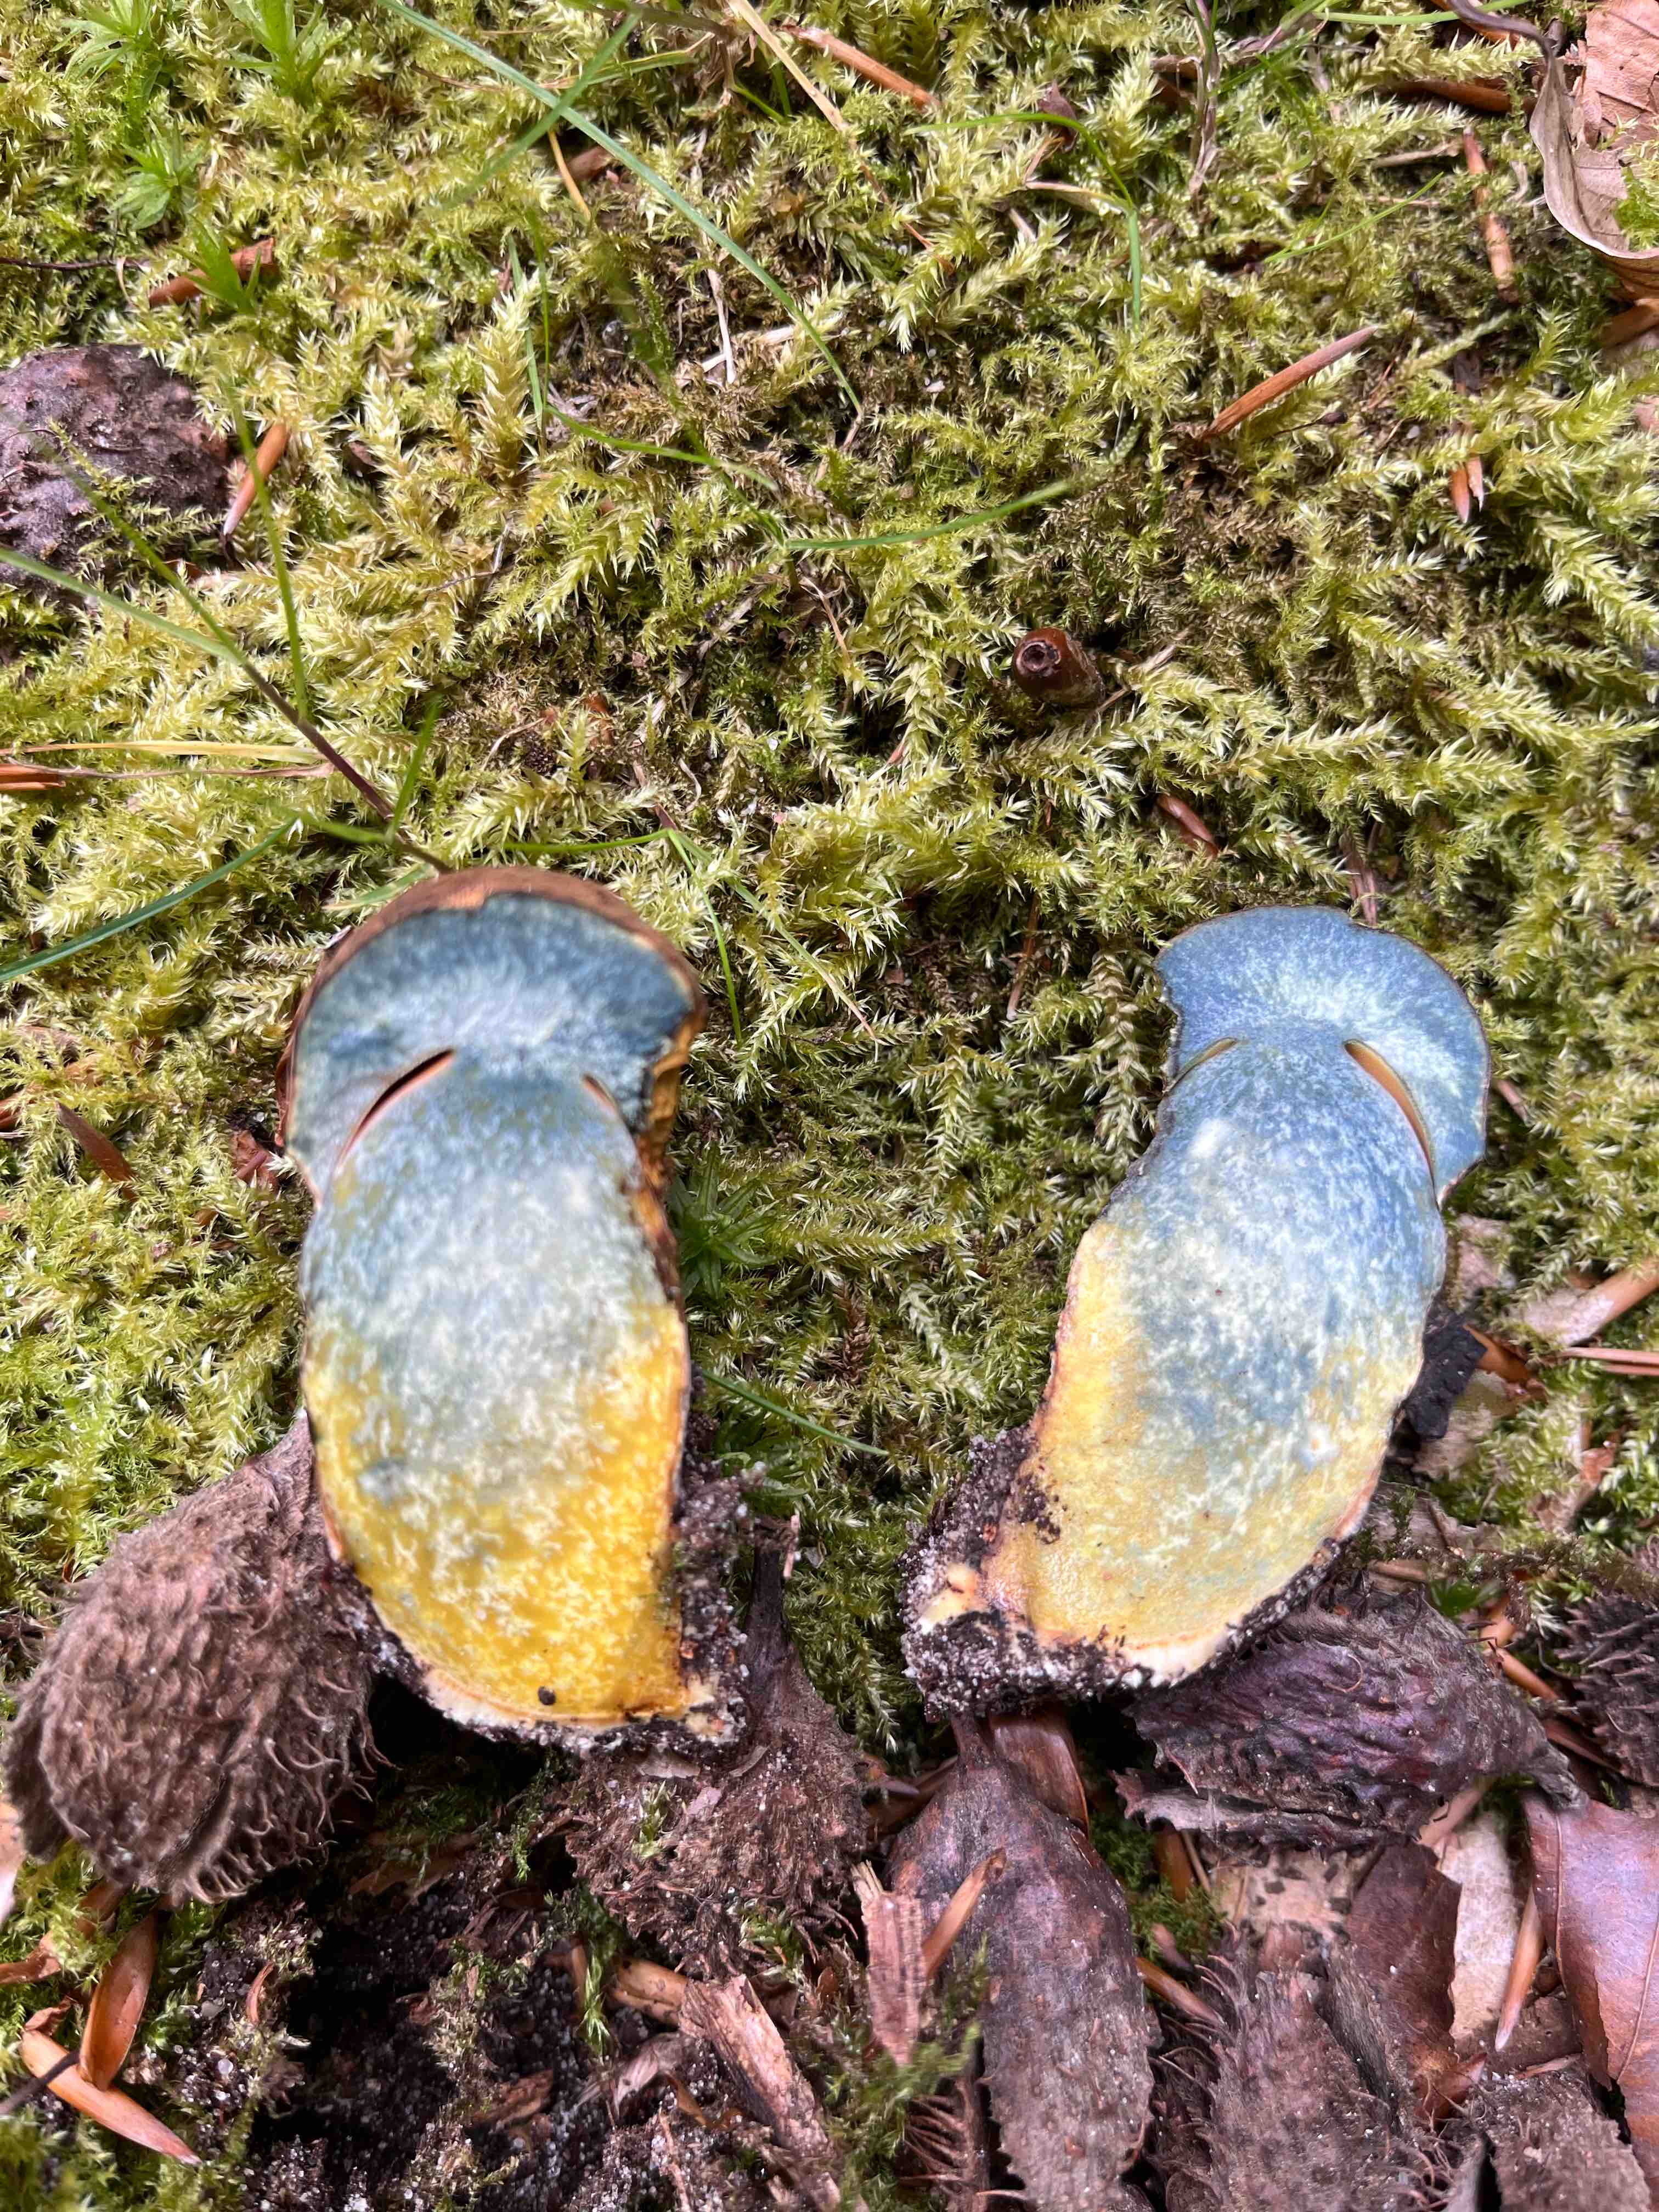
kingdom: Fungi
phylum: Basidiomycota
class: Agaricomycetes
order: Boletales
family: Boletaceae
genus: Neoboletus
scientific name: Neoboletus erythropus
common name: punktstokket indigorørhat
